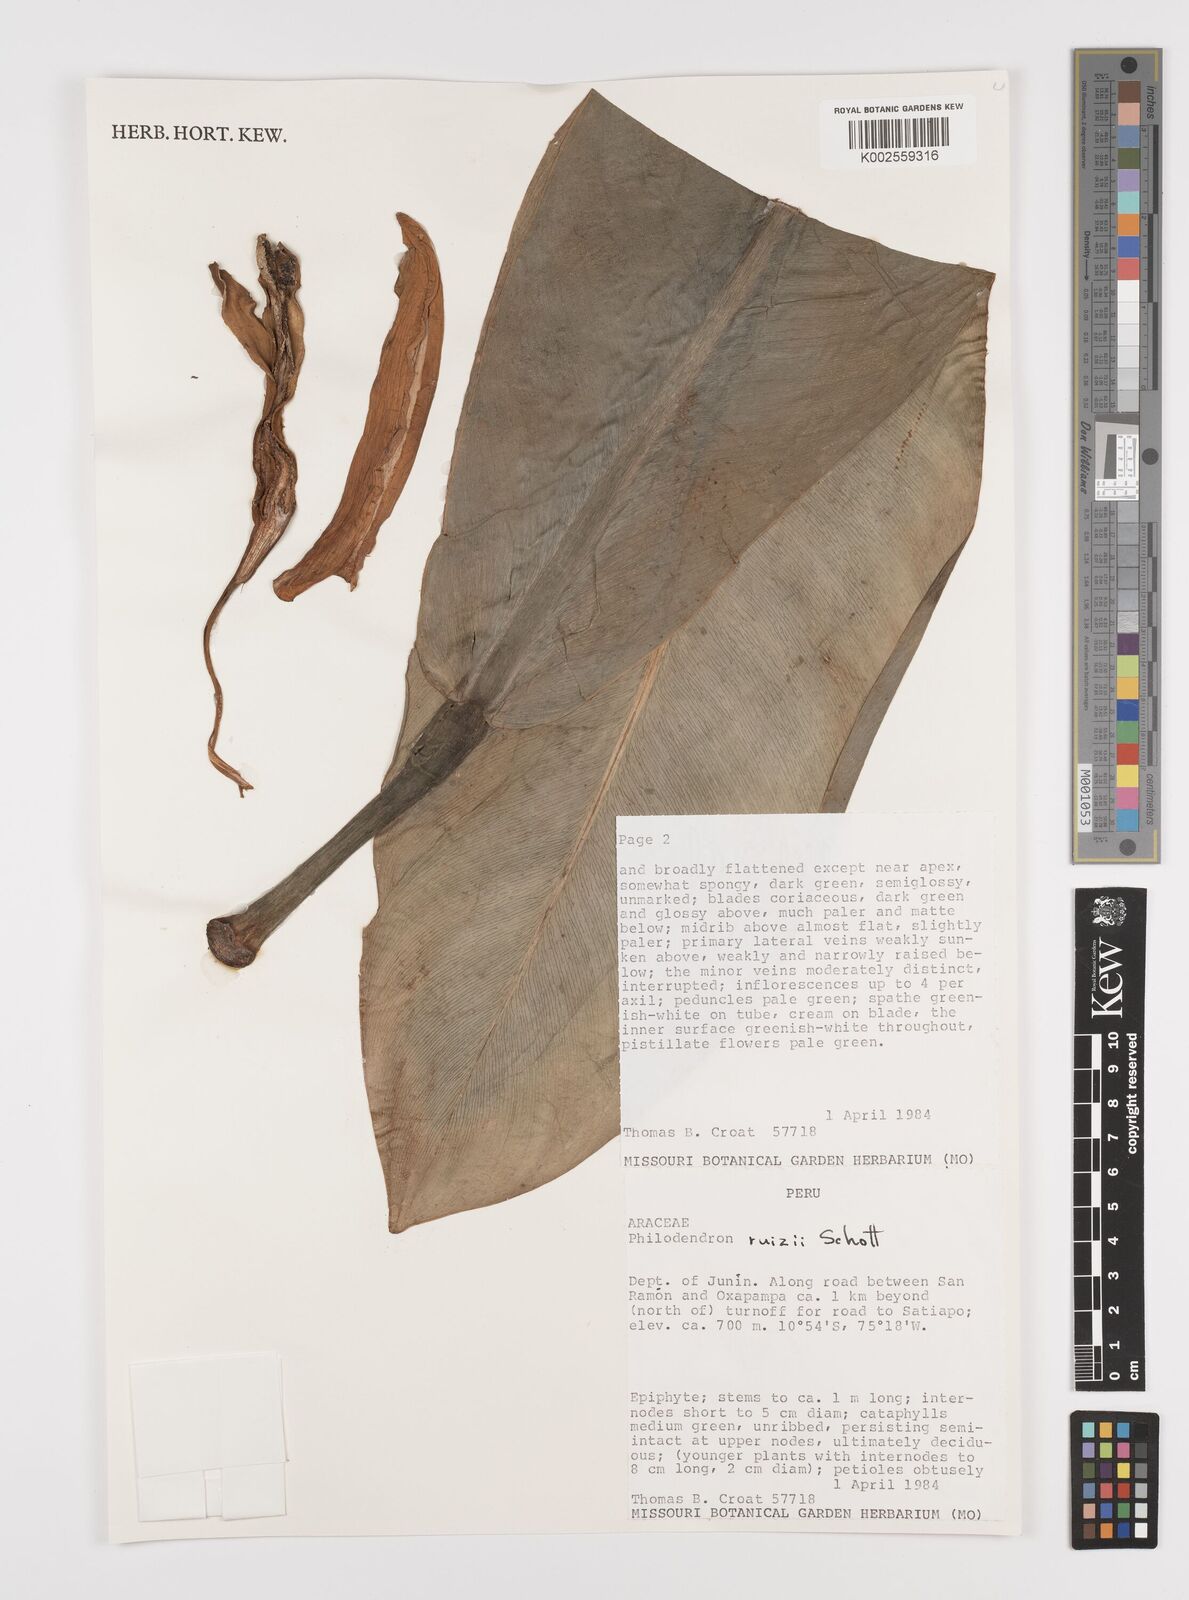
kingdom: Plantae
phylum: Tracheophyta
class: Liliopsida
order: Alismatales
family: Araceae
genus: Philodendron
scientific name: Philodendron ruizii
